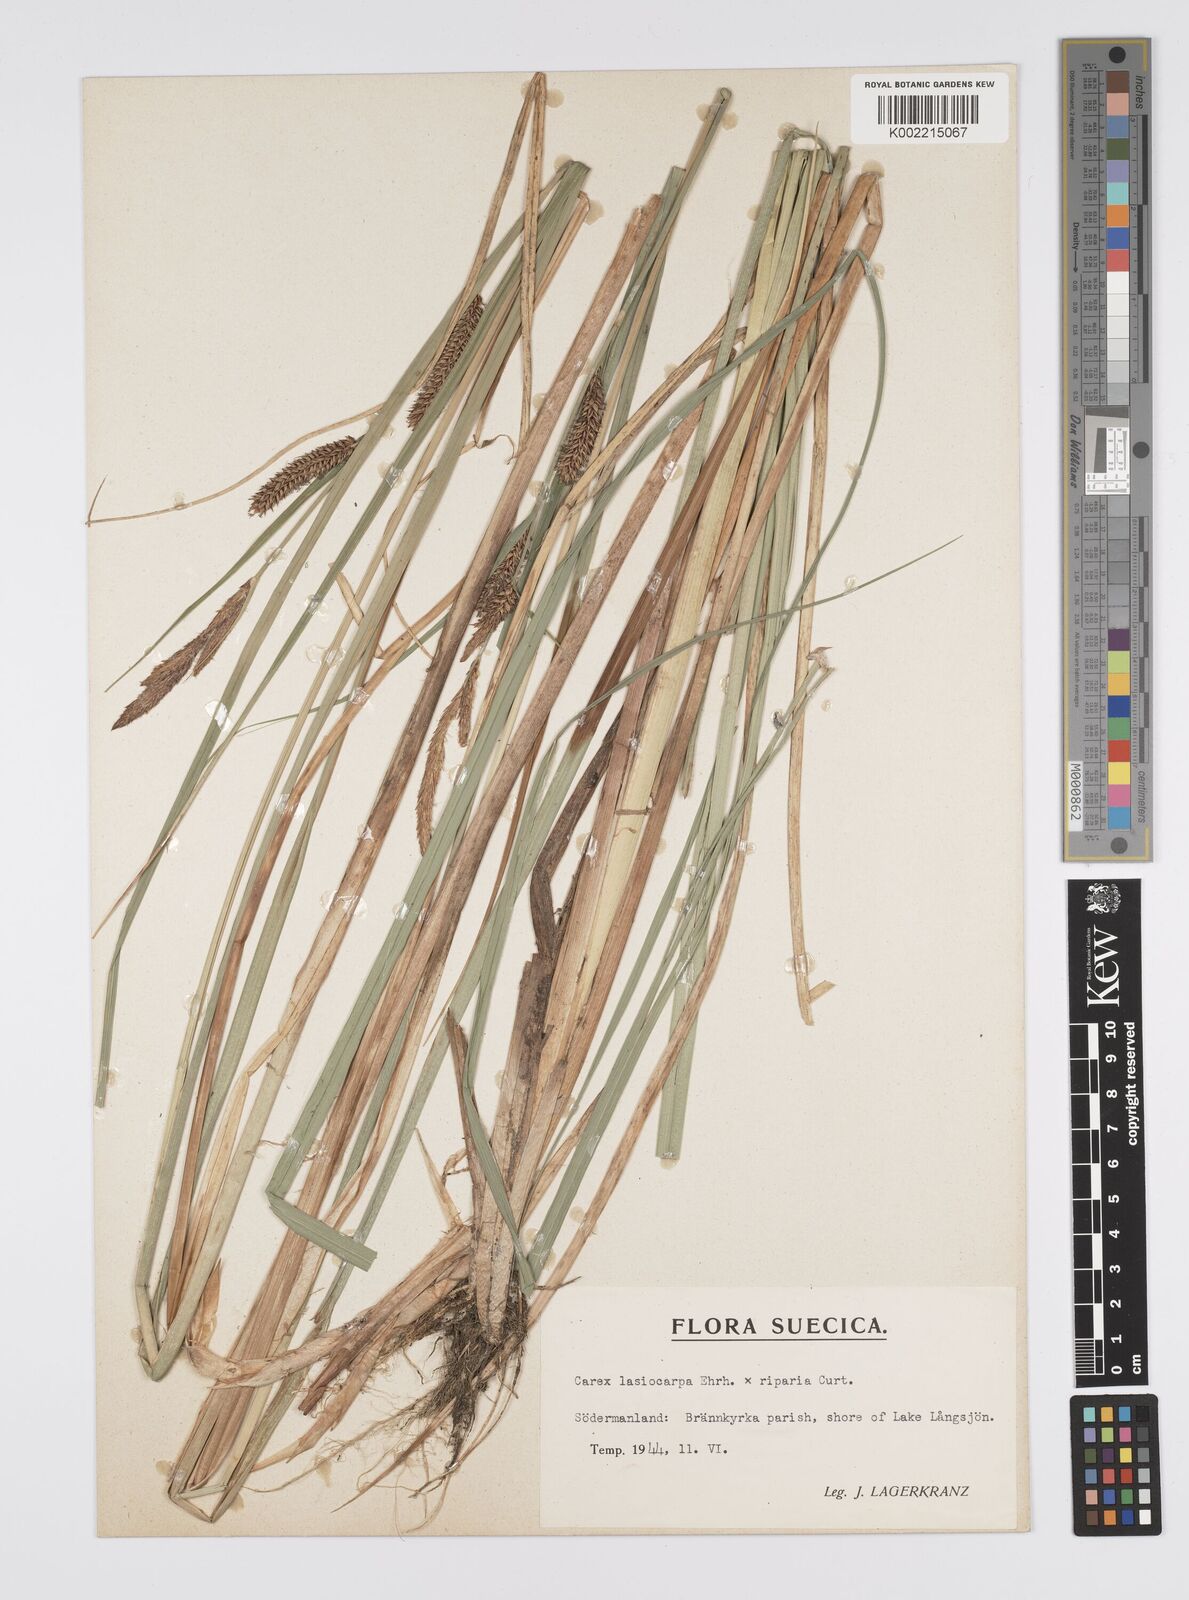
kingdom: Plantae
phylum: Tracheophyta
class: Liliopsida
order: Poales
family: Cyperaceae
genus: Carex
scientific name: Carex evoluta
